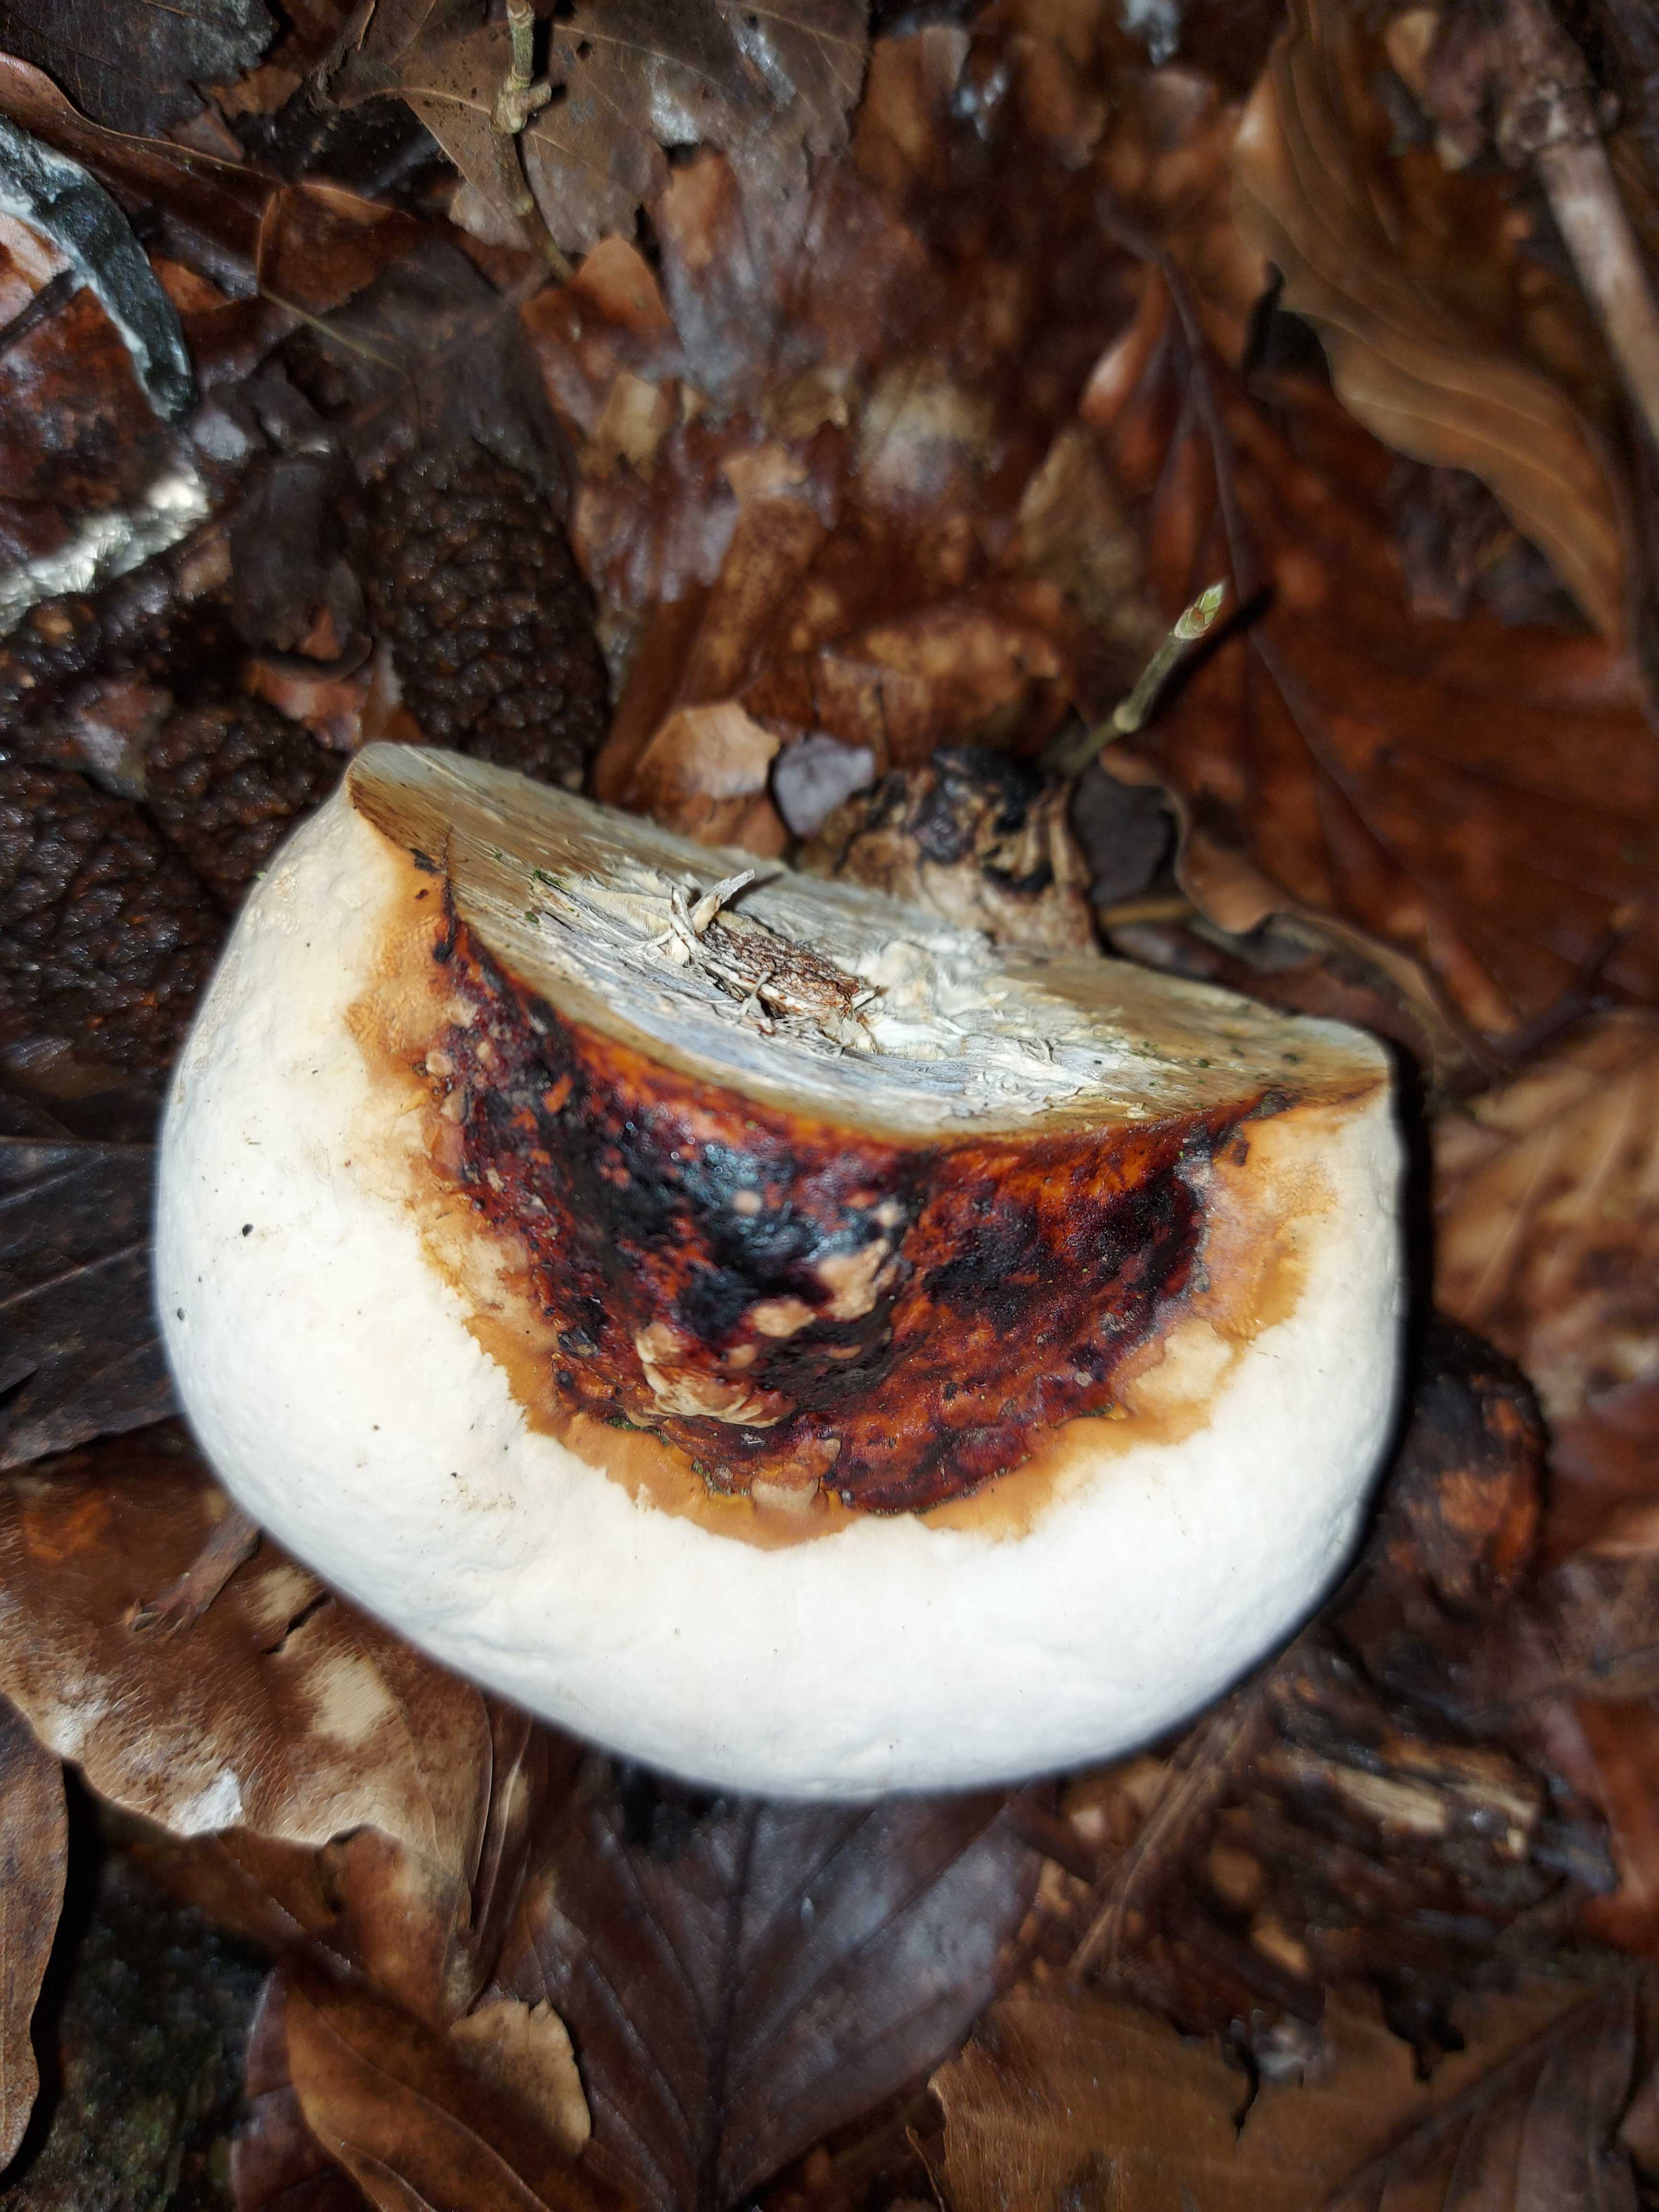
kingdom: Fungi
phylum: Basidiomycota
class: Agaricomycetes
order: Polyporales
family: Fomitopsidaceae
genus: Fomitopsis
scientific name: Fomitopsis pinicola
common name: randbæltet hovporesvamp
